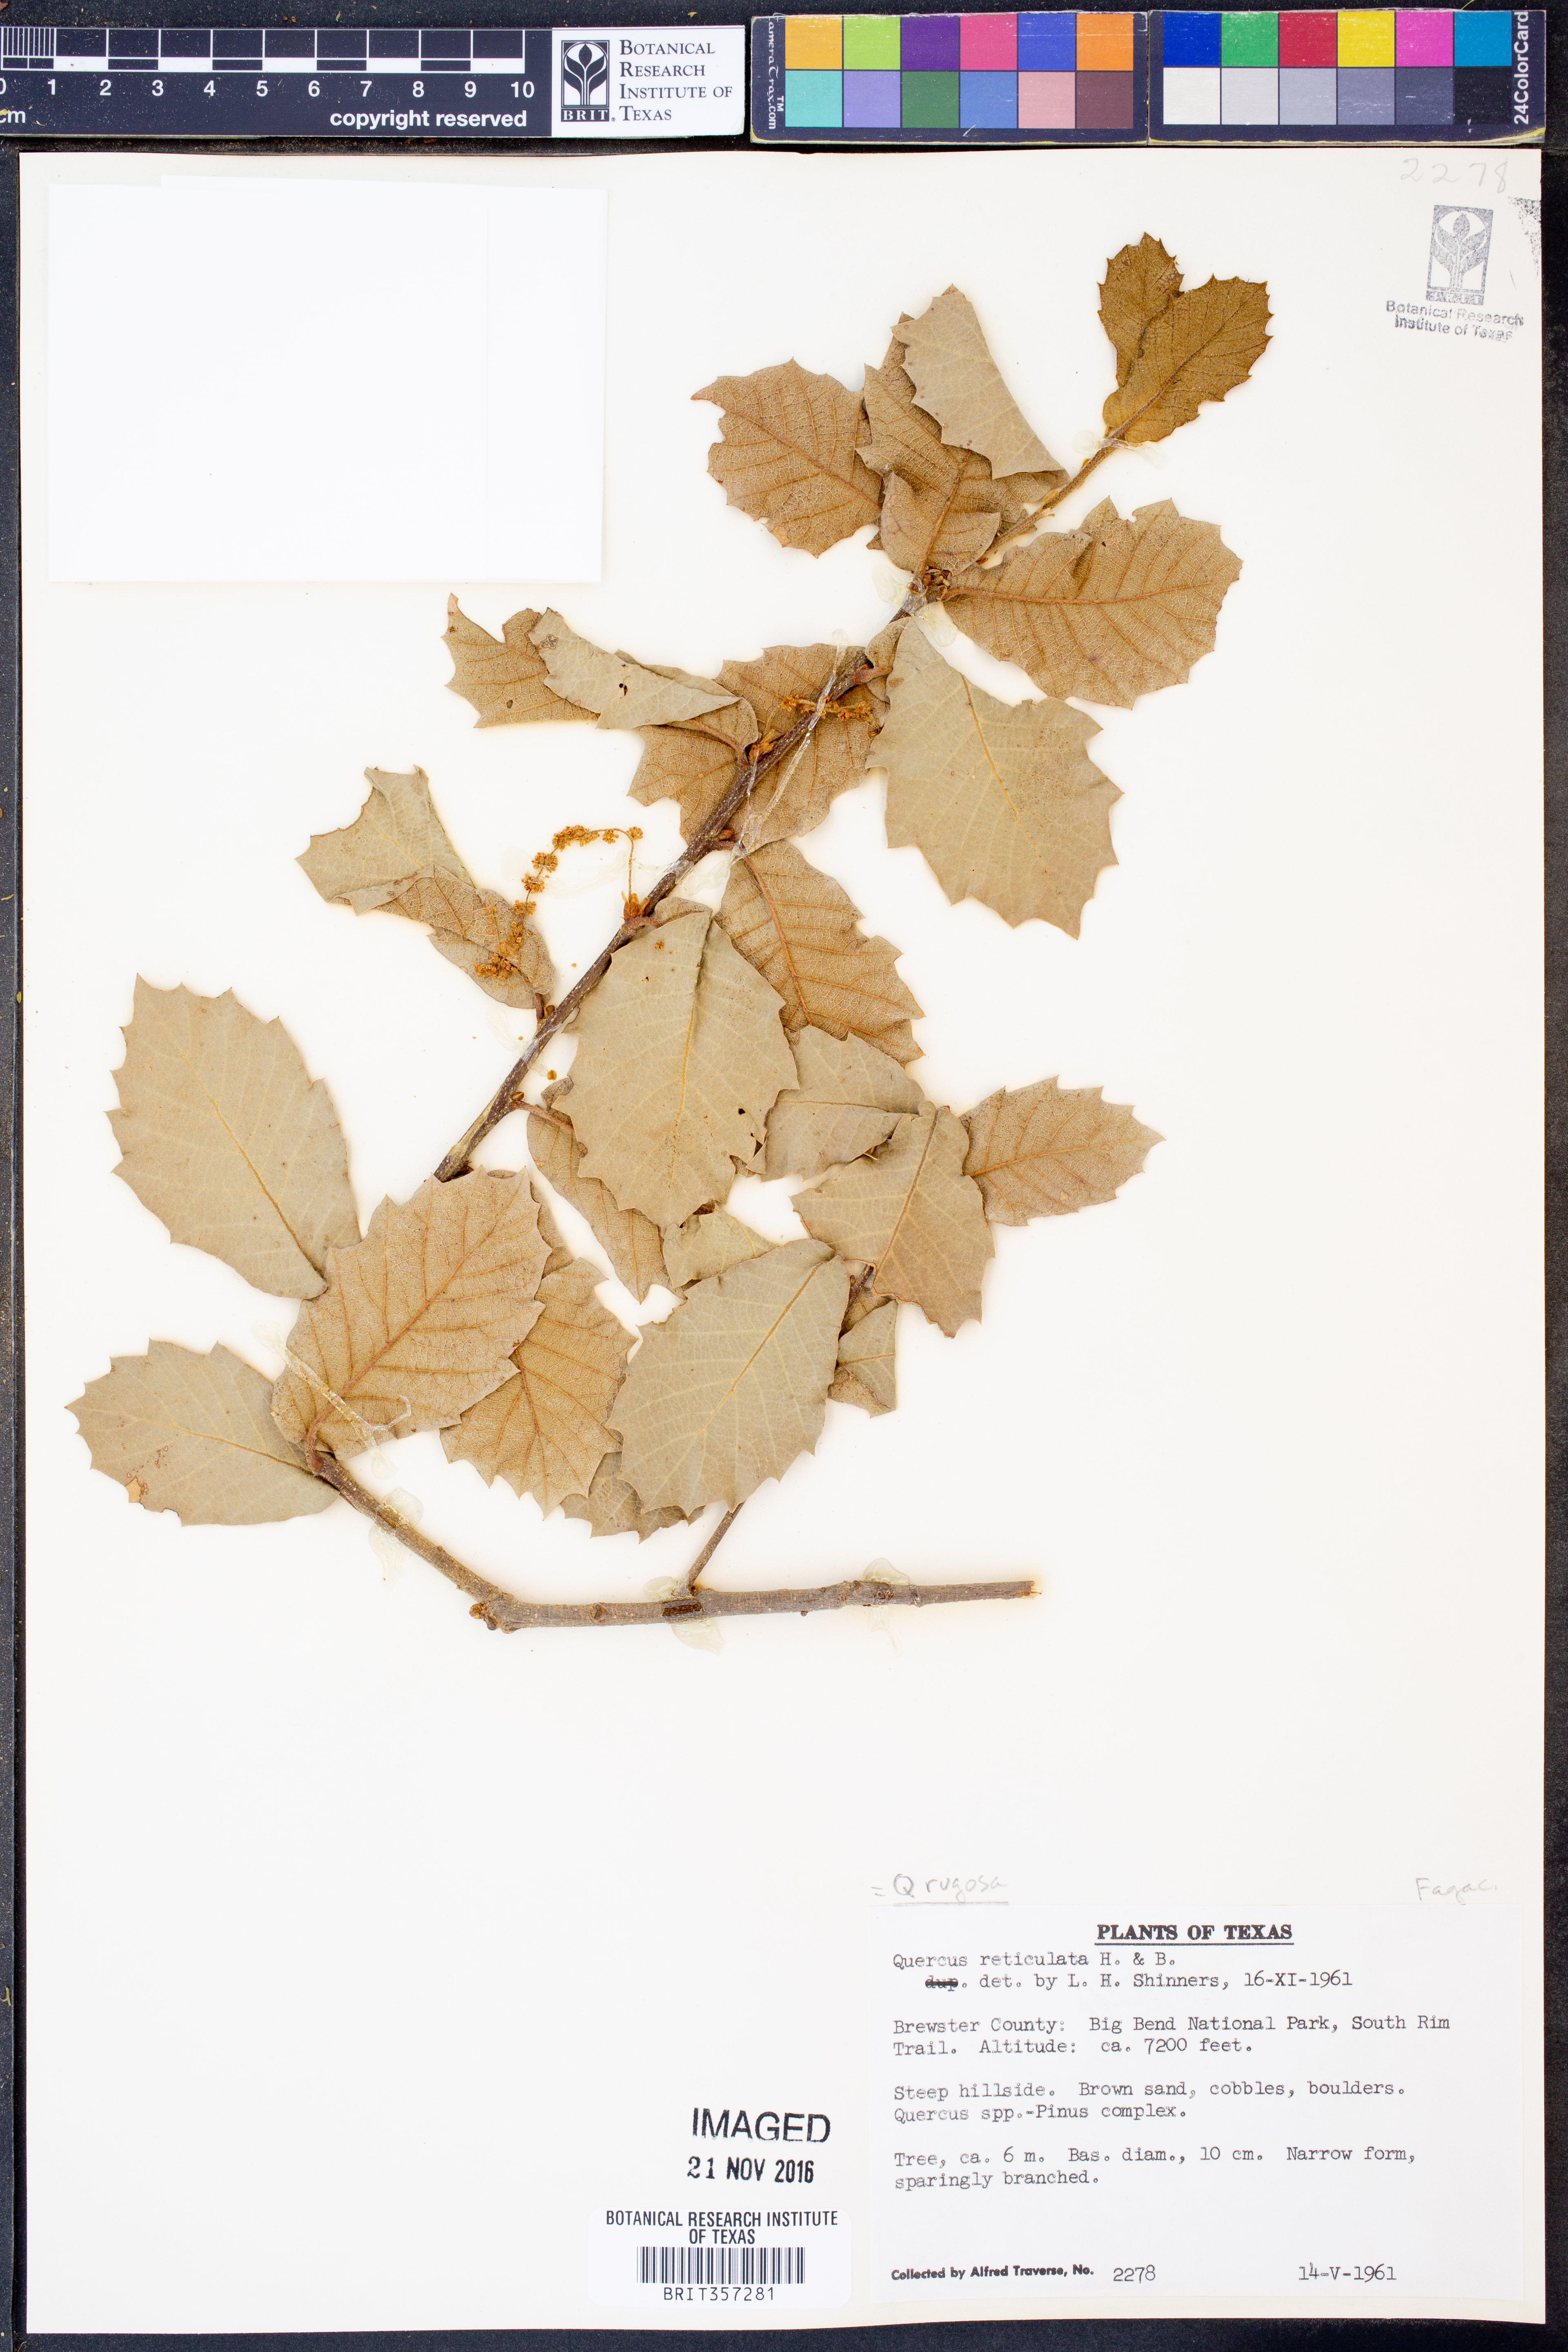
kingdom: Plantae
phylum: Tracheophyta
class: Magnoliopsida
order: Fagales
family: Fagaceae
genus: Quercus
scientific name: Quercus rugosa
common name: Netleaf oak
